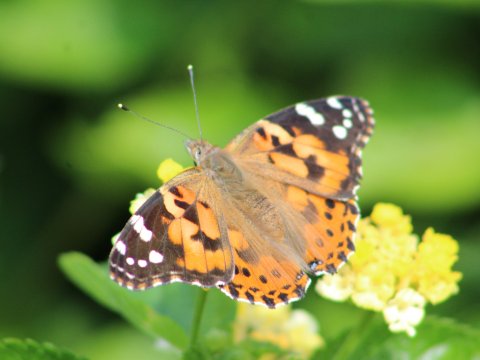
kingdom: Animalia
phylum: Arthropoda
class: Insecta
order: Lepidoptera
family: Nymphalidae
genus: Vanessa
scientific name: Vanessa cardui
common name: Painted Lady
